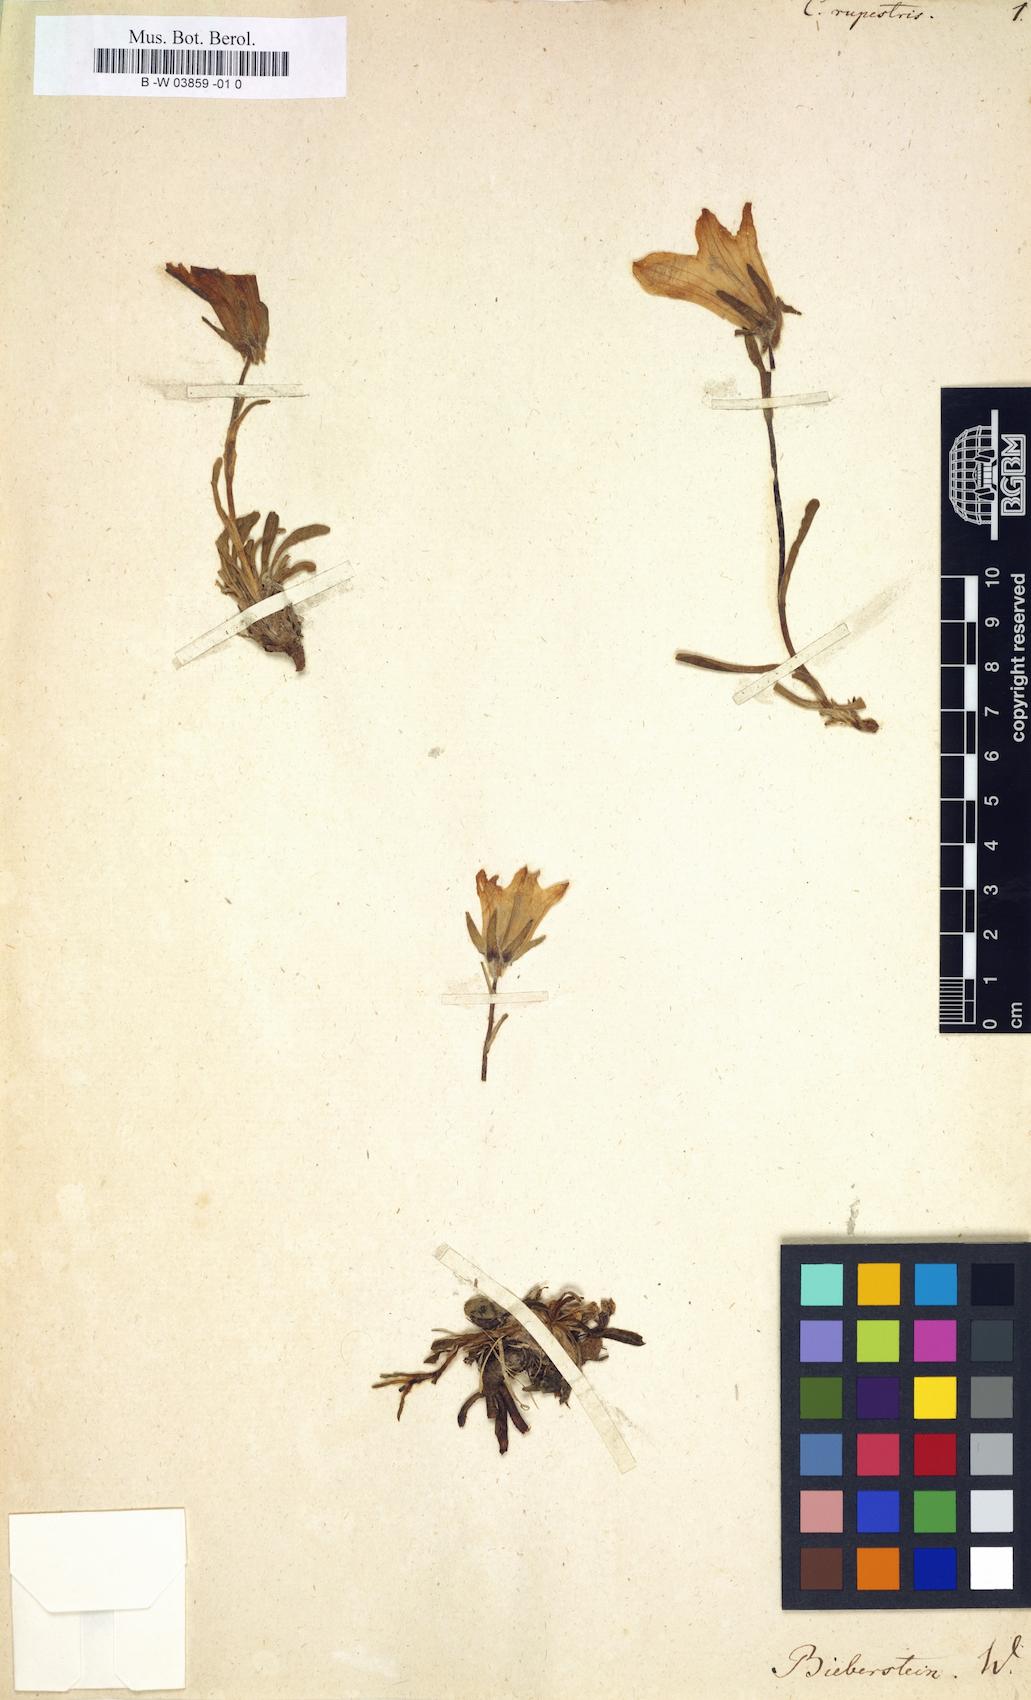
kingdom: Plantae
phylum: Tracheophyta
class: Magnoliopsida
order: Asterales
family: Campanulaceae
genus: Campanula
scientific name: Campanula rupestris
